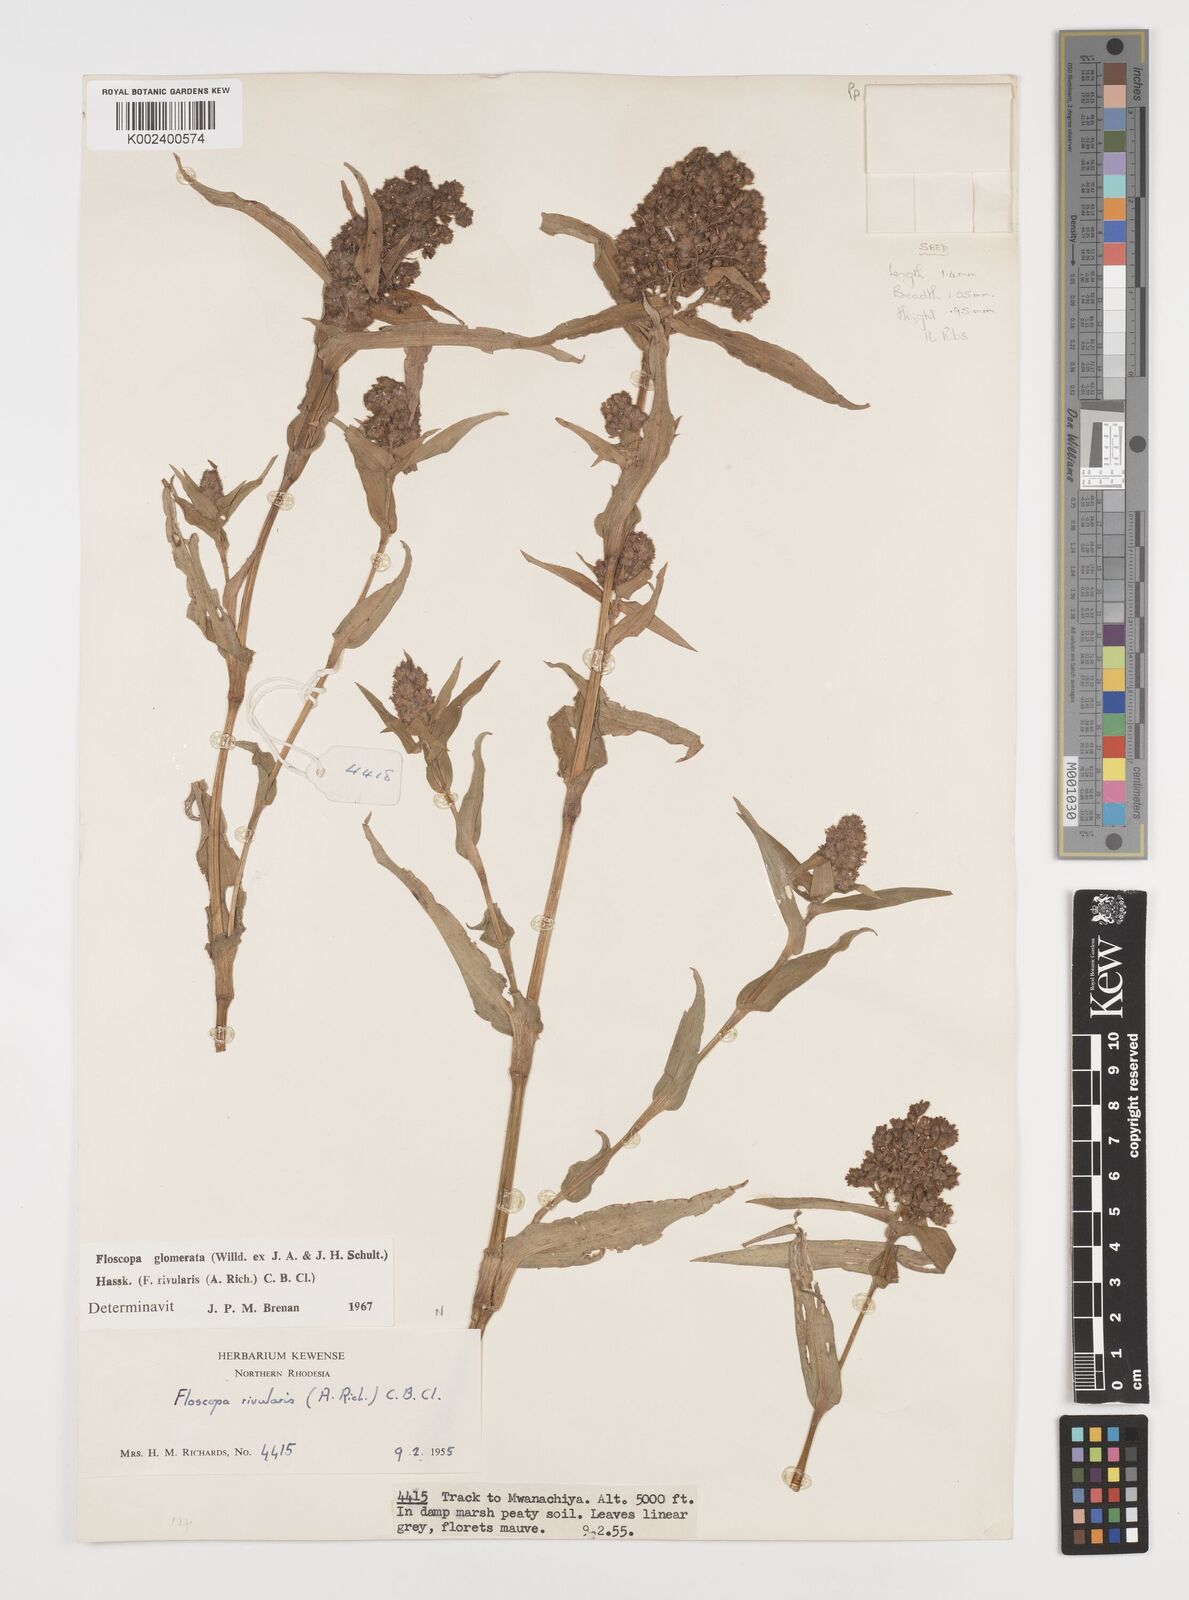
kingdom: Plantae
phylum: Tracheophyta
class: Liliopsida
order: Commelinales
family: Commelinaceae
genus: Floscopa
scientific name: Floscopa glomerata
